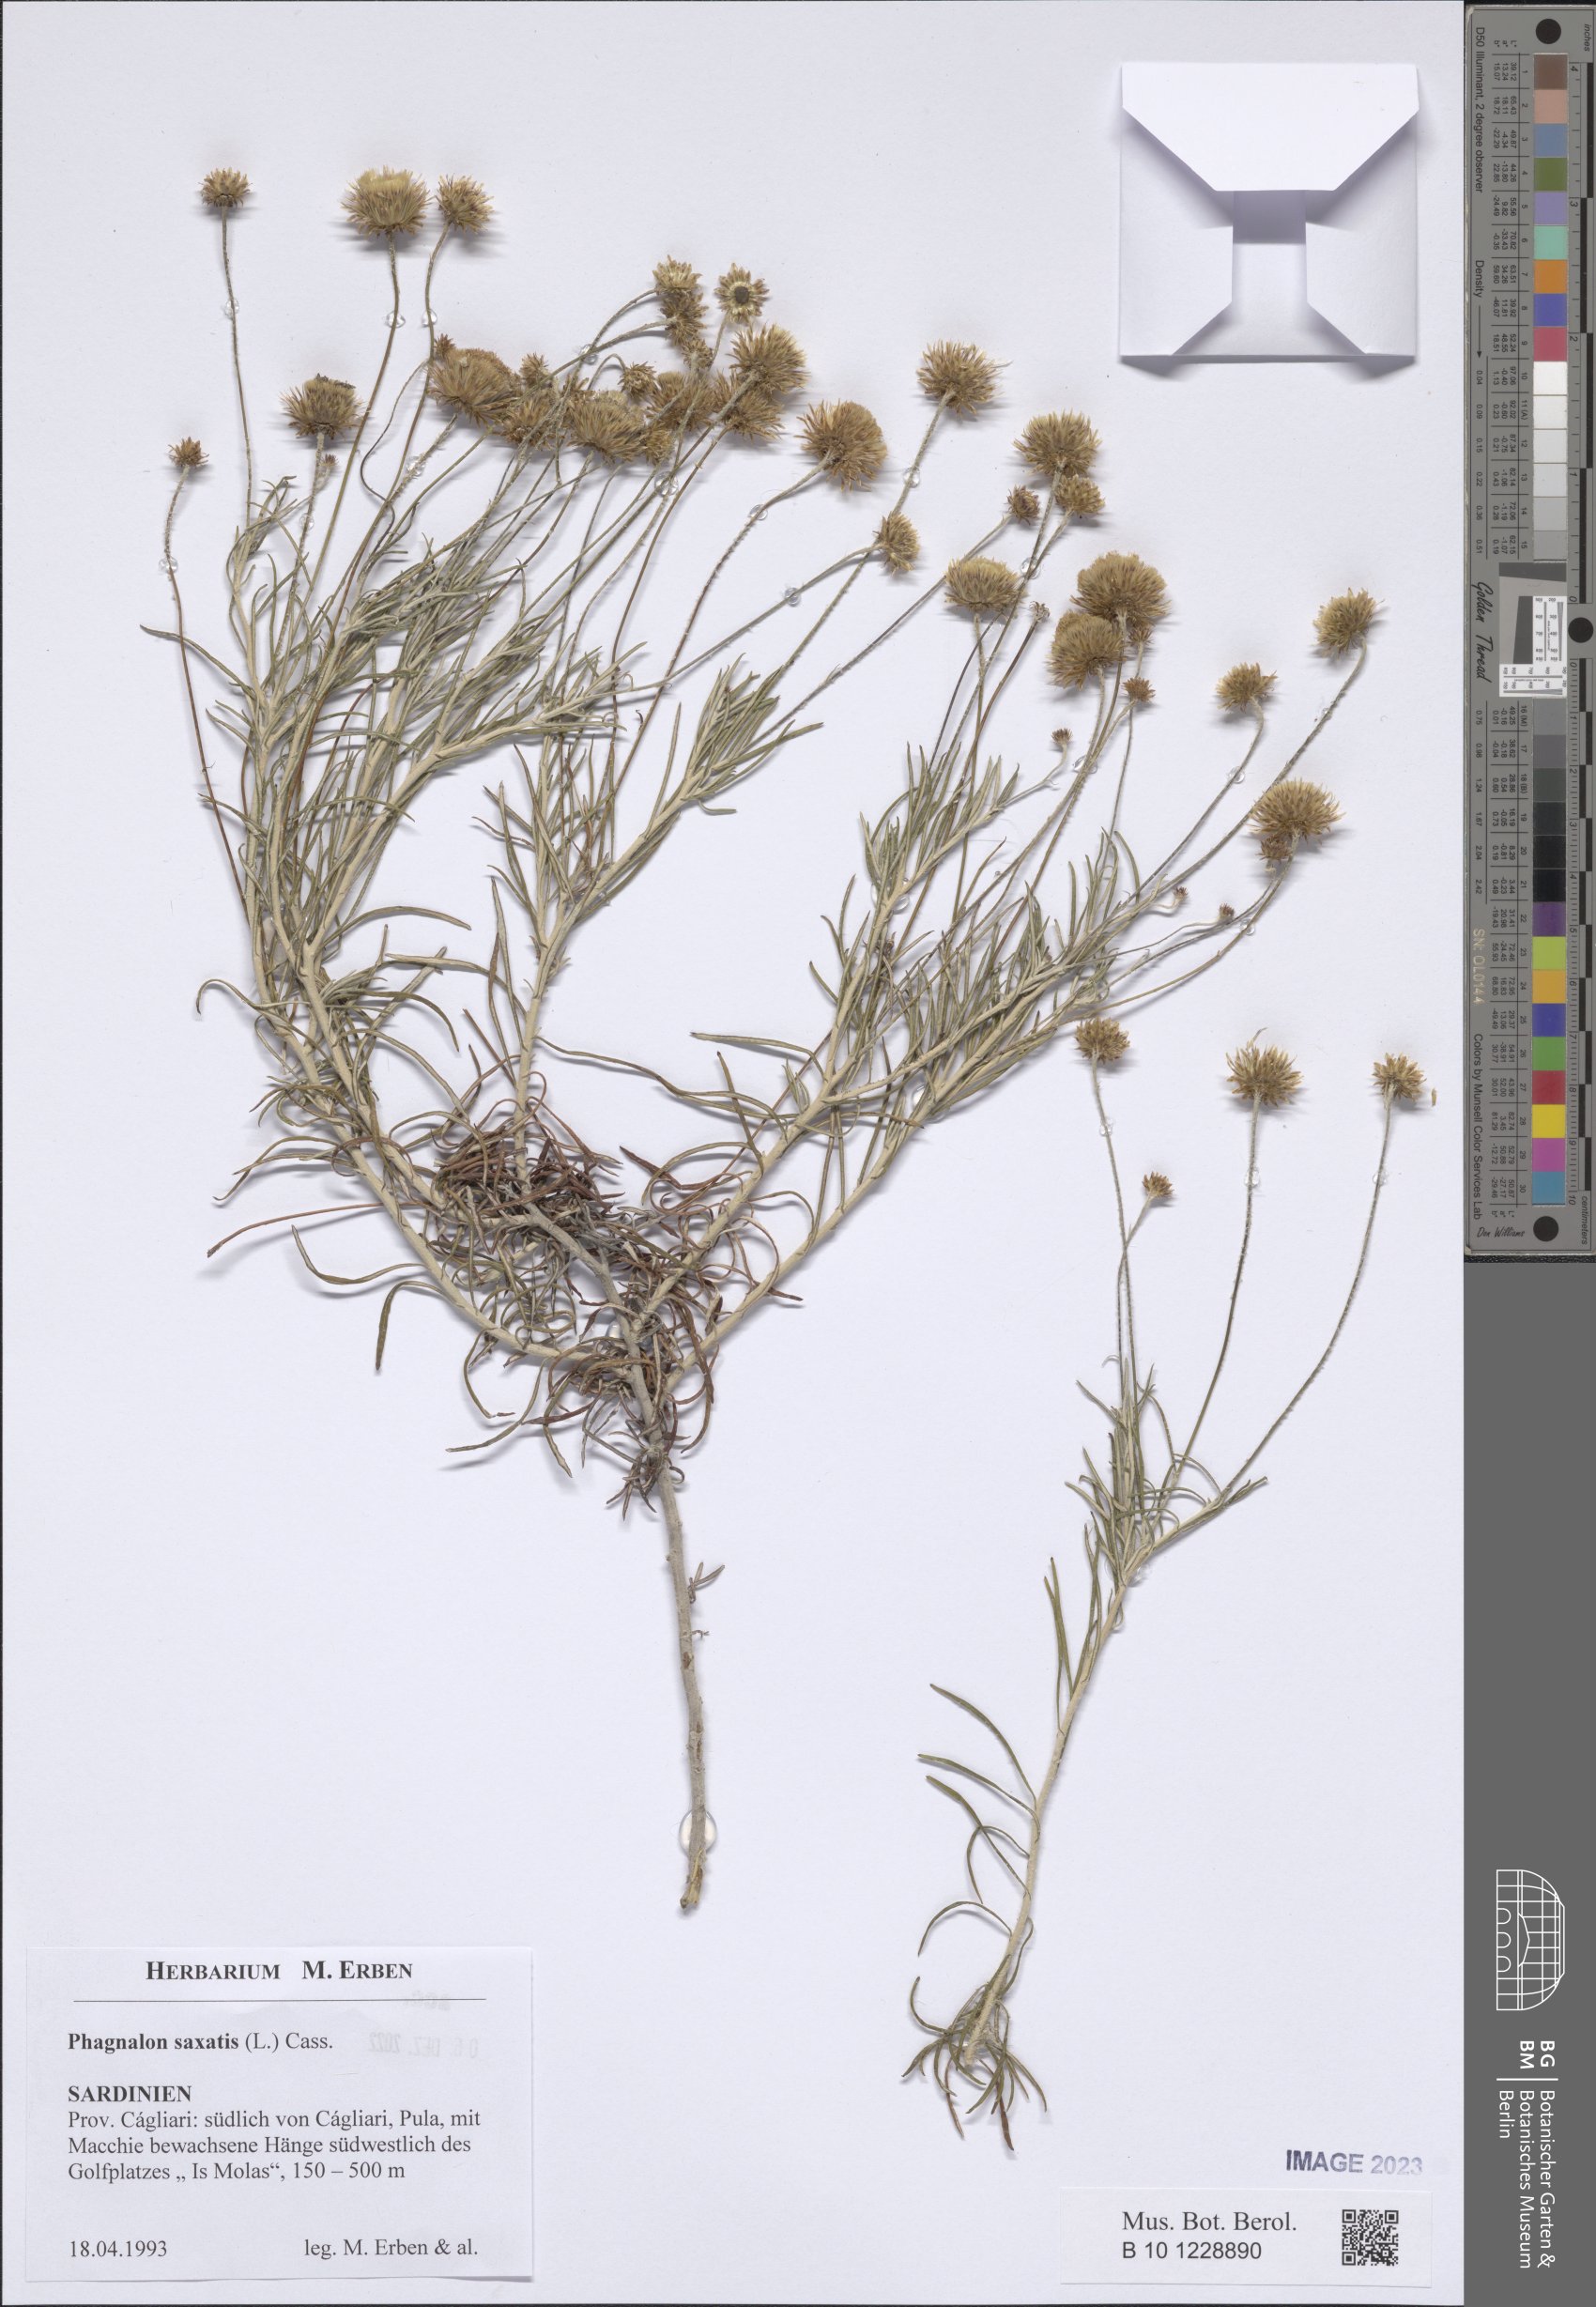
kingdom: Plantae
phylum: Tracheophyta
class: Magnoliopsida
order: Asterales
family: Asteraceae
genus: Phagnalon
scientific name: Phagnalon saxatile
